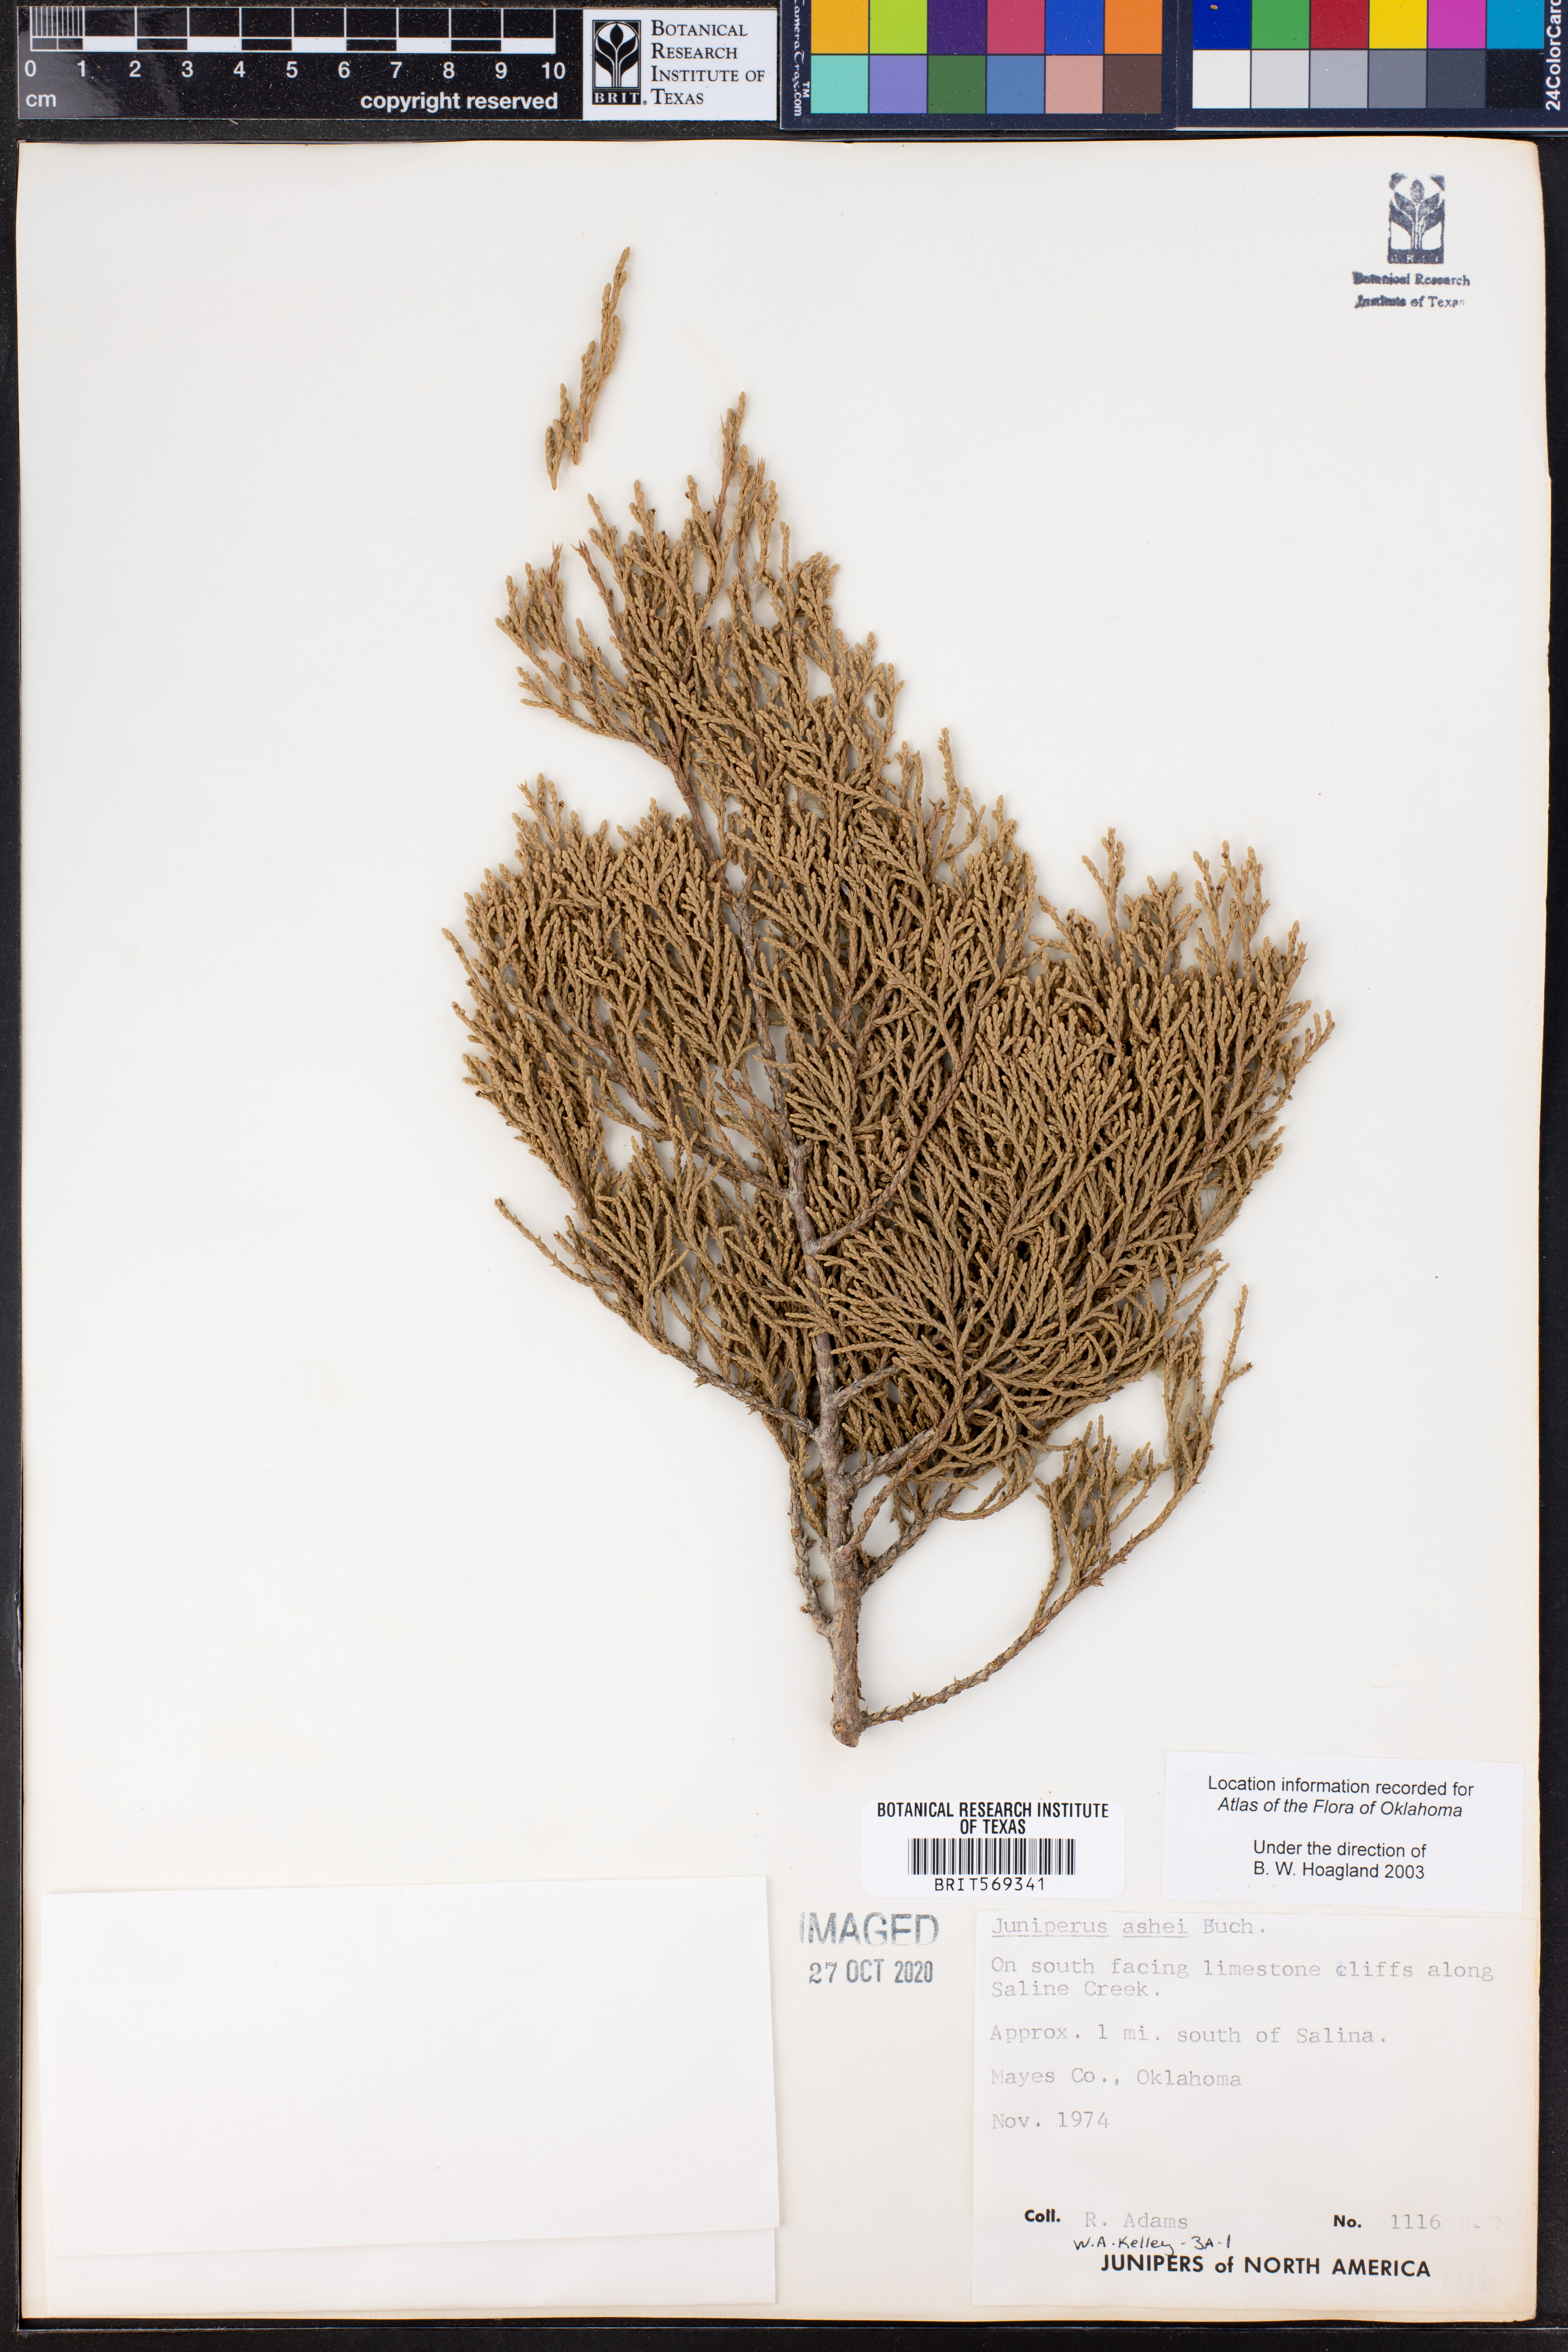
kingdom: Plantae
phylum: Tracheophyta
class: Pinopsida
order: Pinales
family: Cupressaceae
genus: Juniperus
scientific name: Juniperus ashei
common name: Mexican juniper
